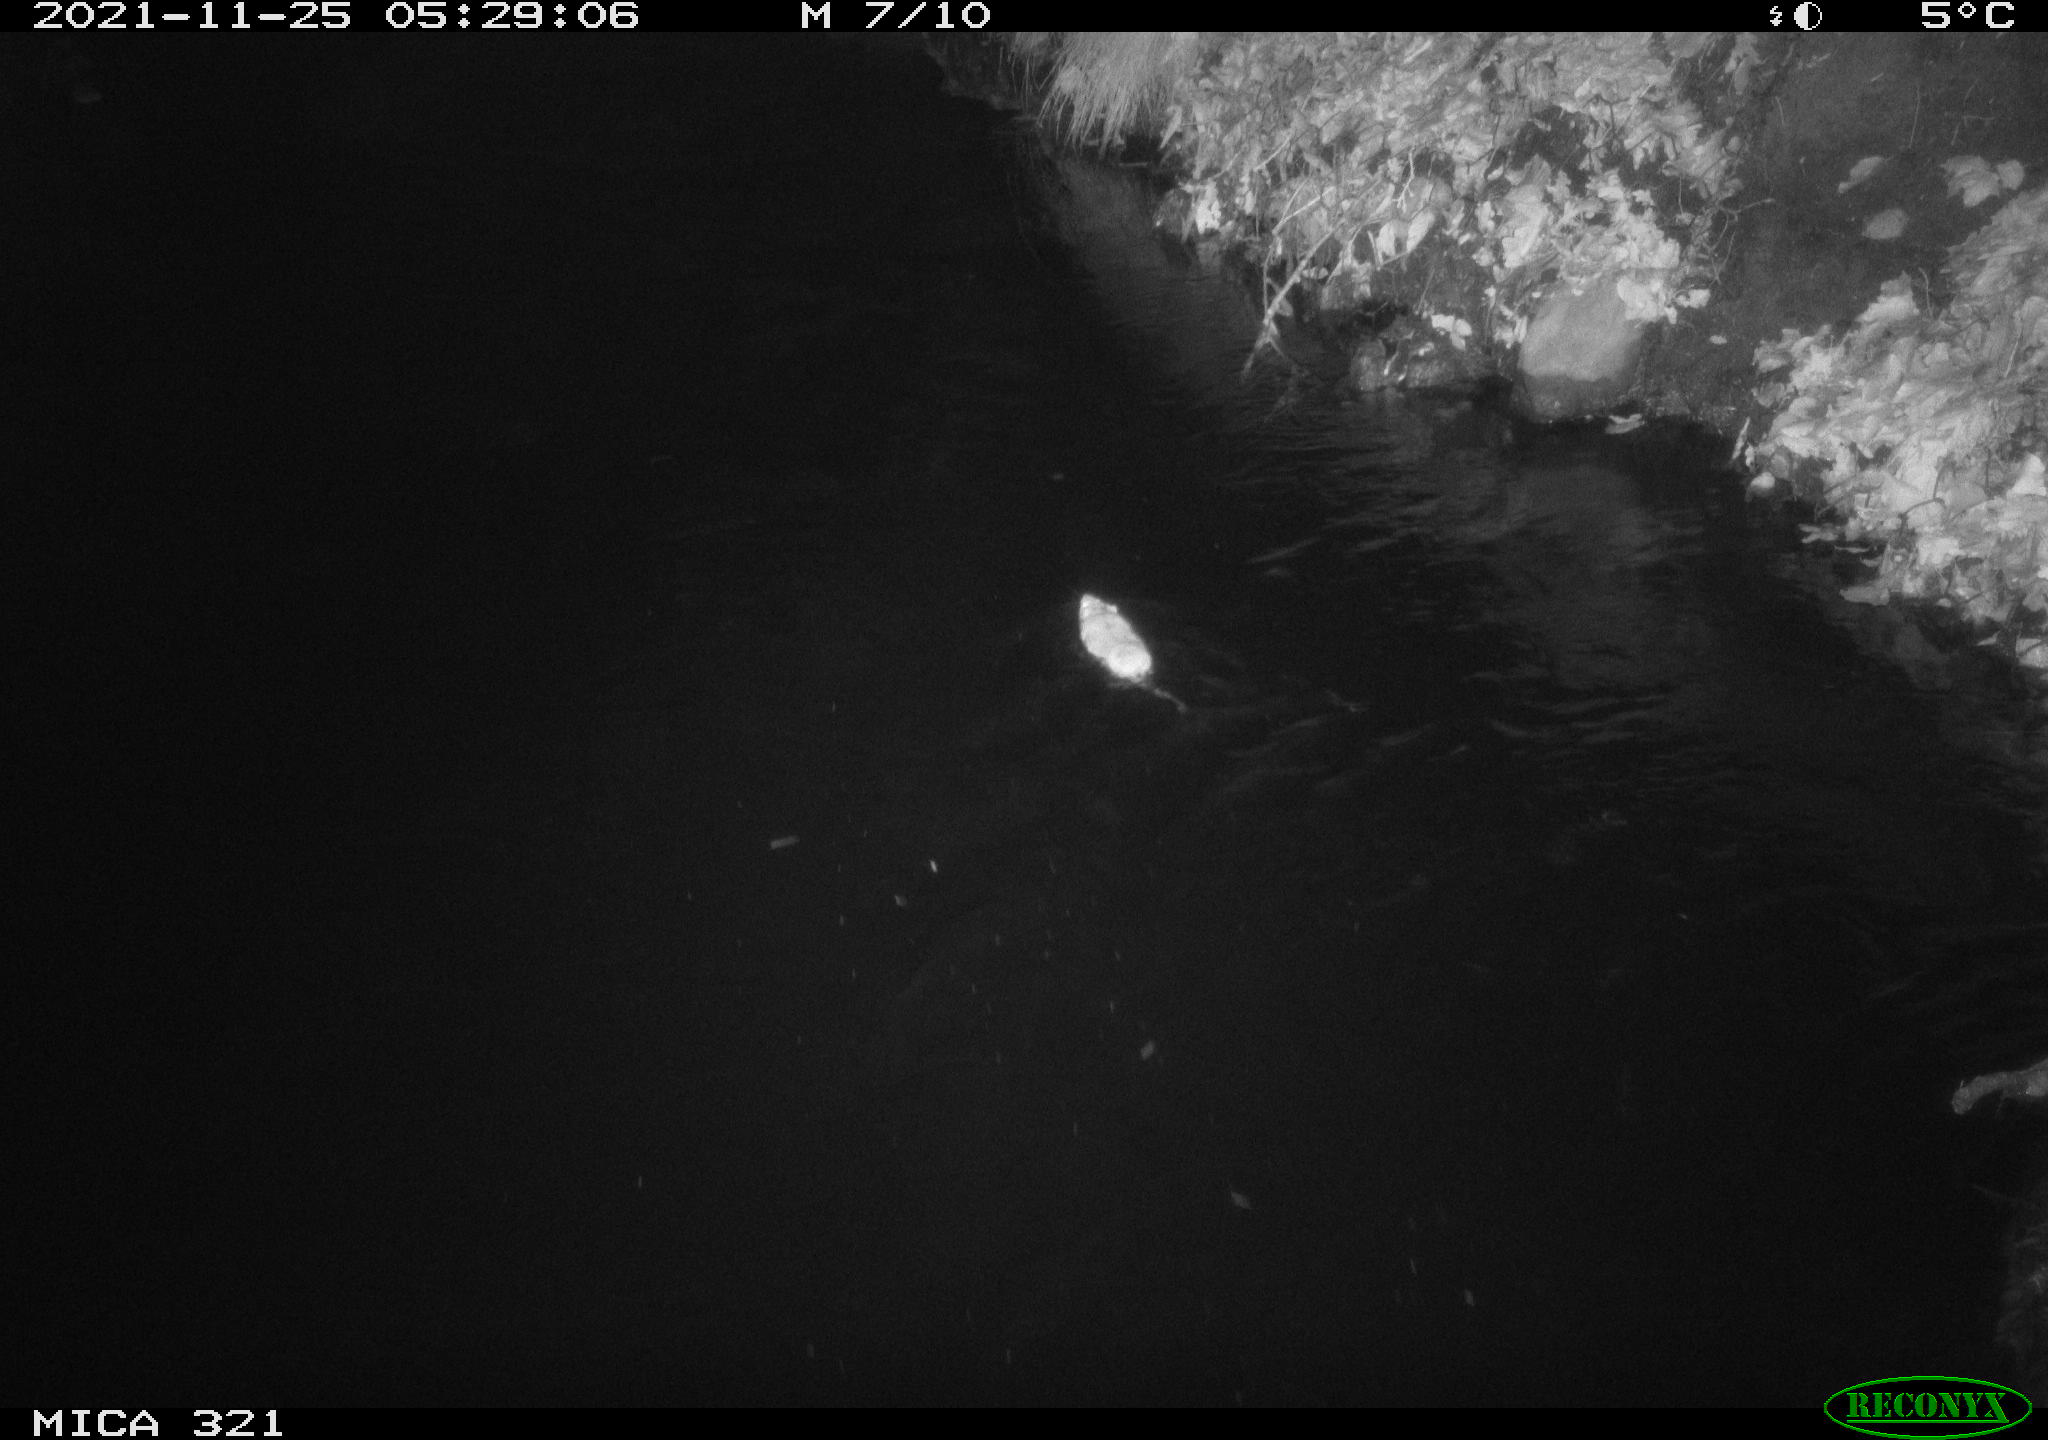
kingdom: Animalia
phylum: Chordata
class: Mammalia
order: Rodentia
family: Muridae
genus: Rattus
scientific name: Rattus norvegicus
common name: Brown rat
